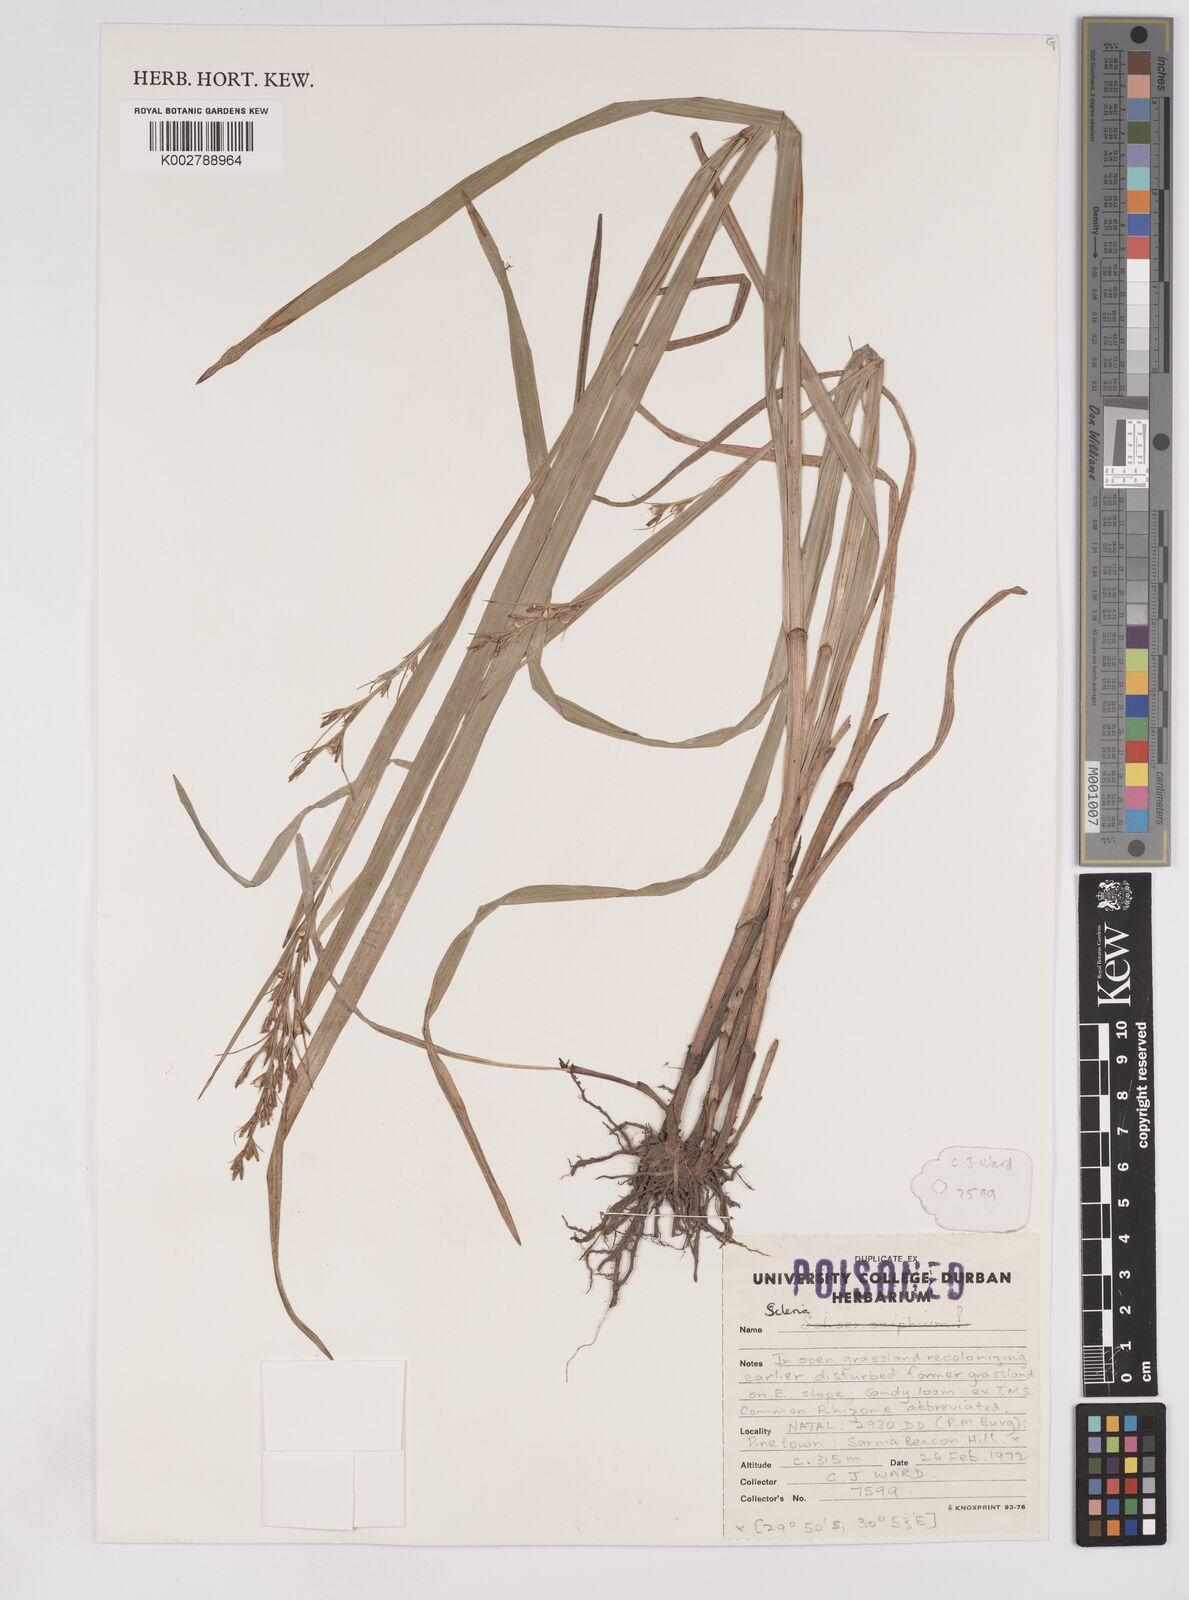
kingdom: Plantae
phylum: Tracheophyta
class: Liliopsida
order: Poales
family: Cyperaceae
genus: Scleria
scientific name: Scleria
